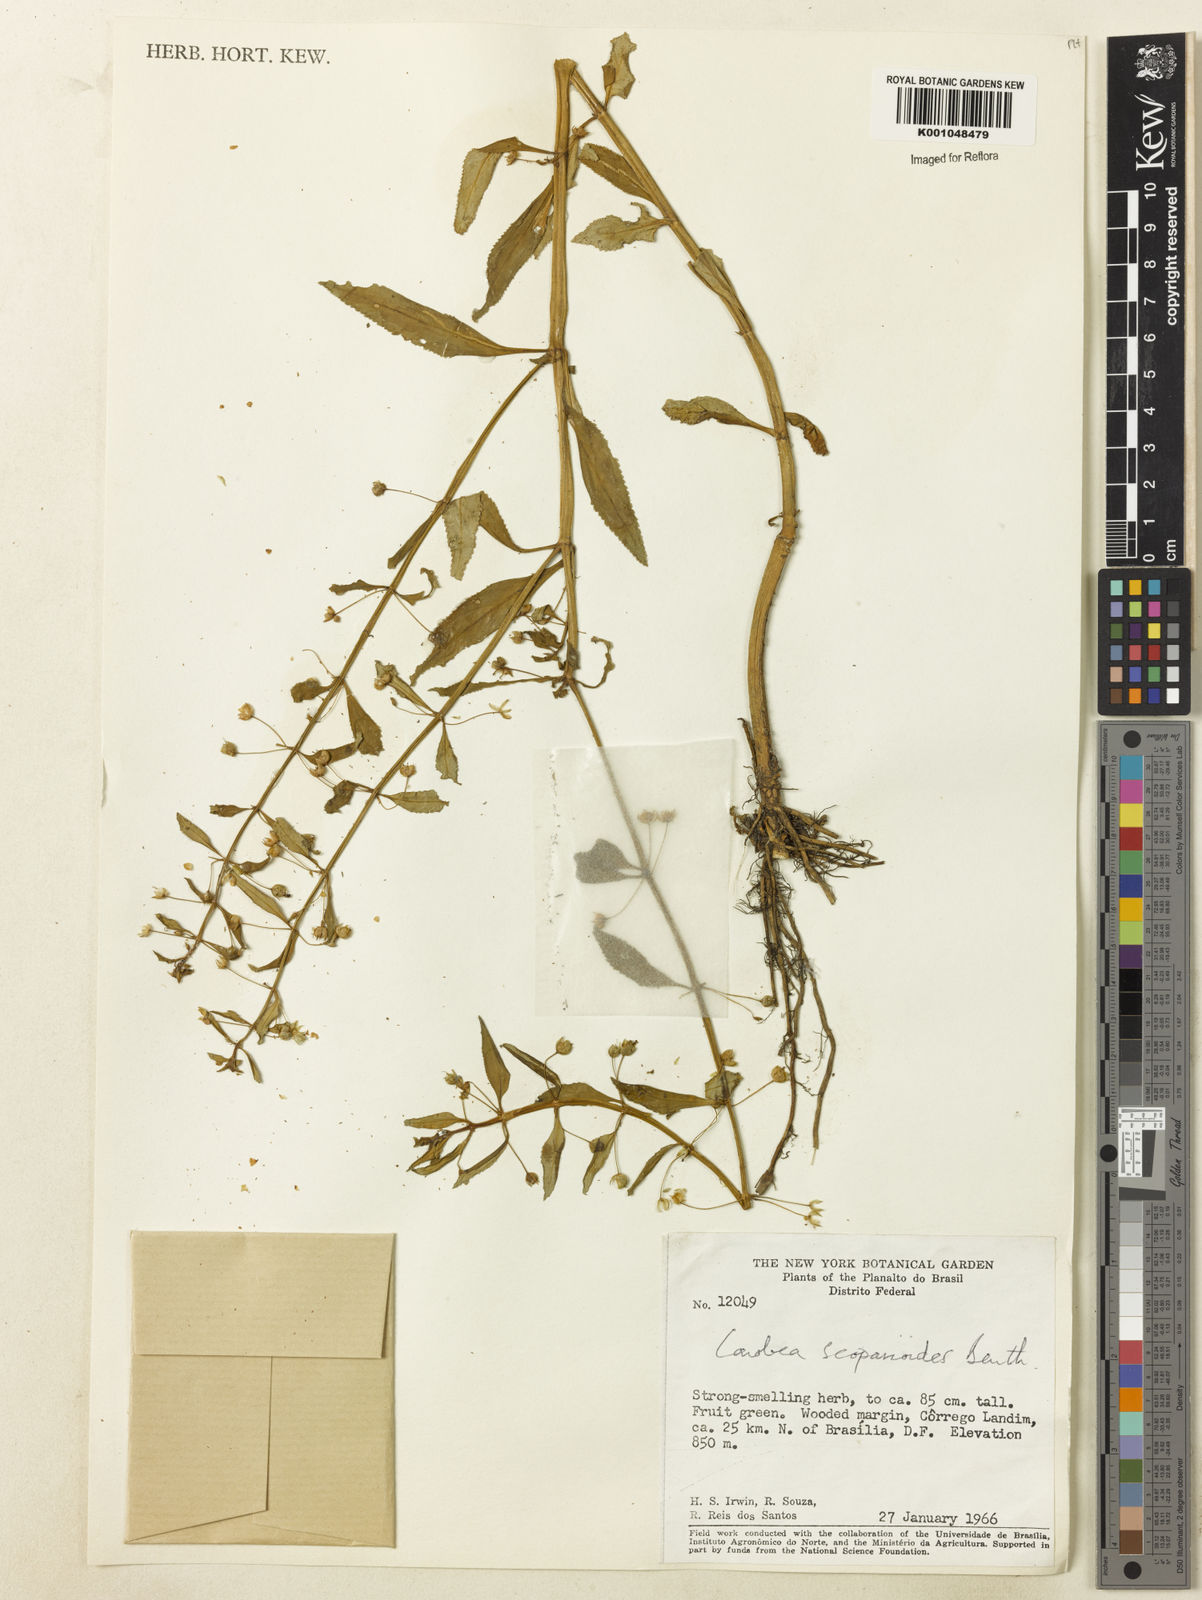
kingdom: Plantae
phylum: Tracheophyta
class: Magnoliopsida
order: Lamiales
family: Plantaginaceae
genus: Conobea
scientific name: Conobea scoparioides
